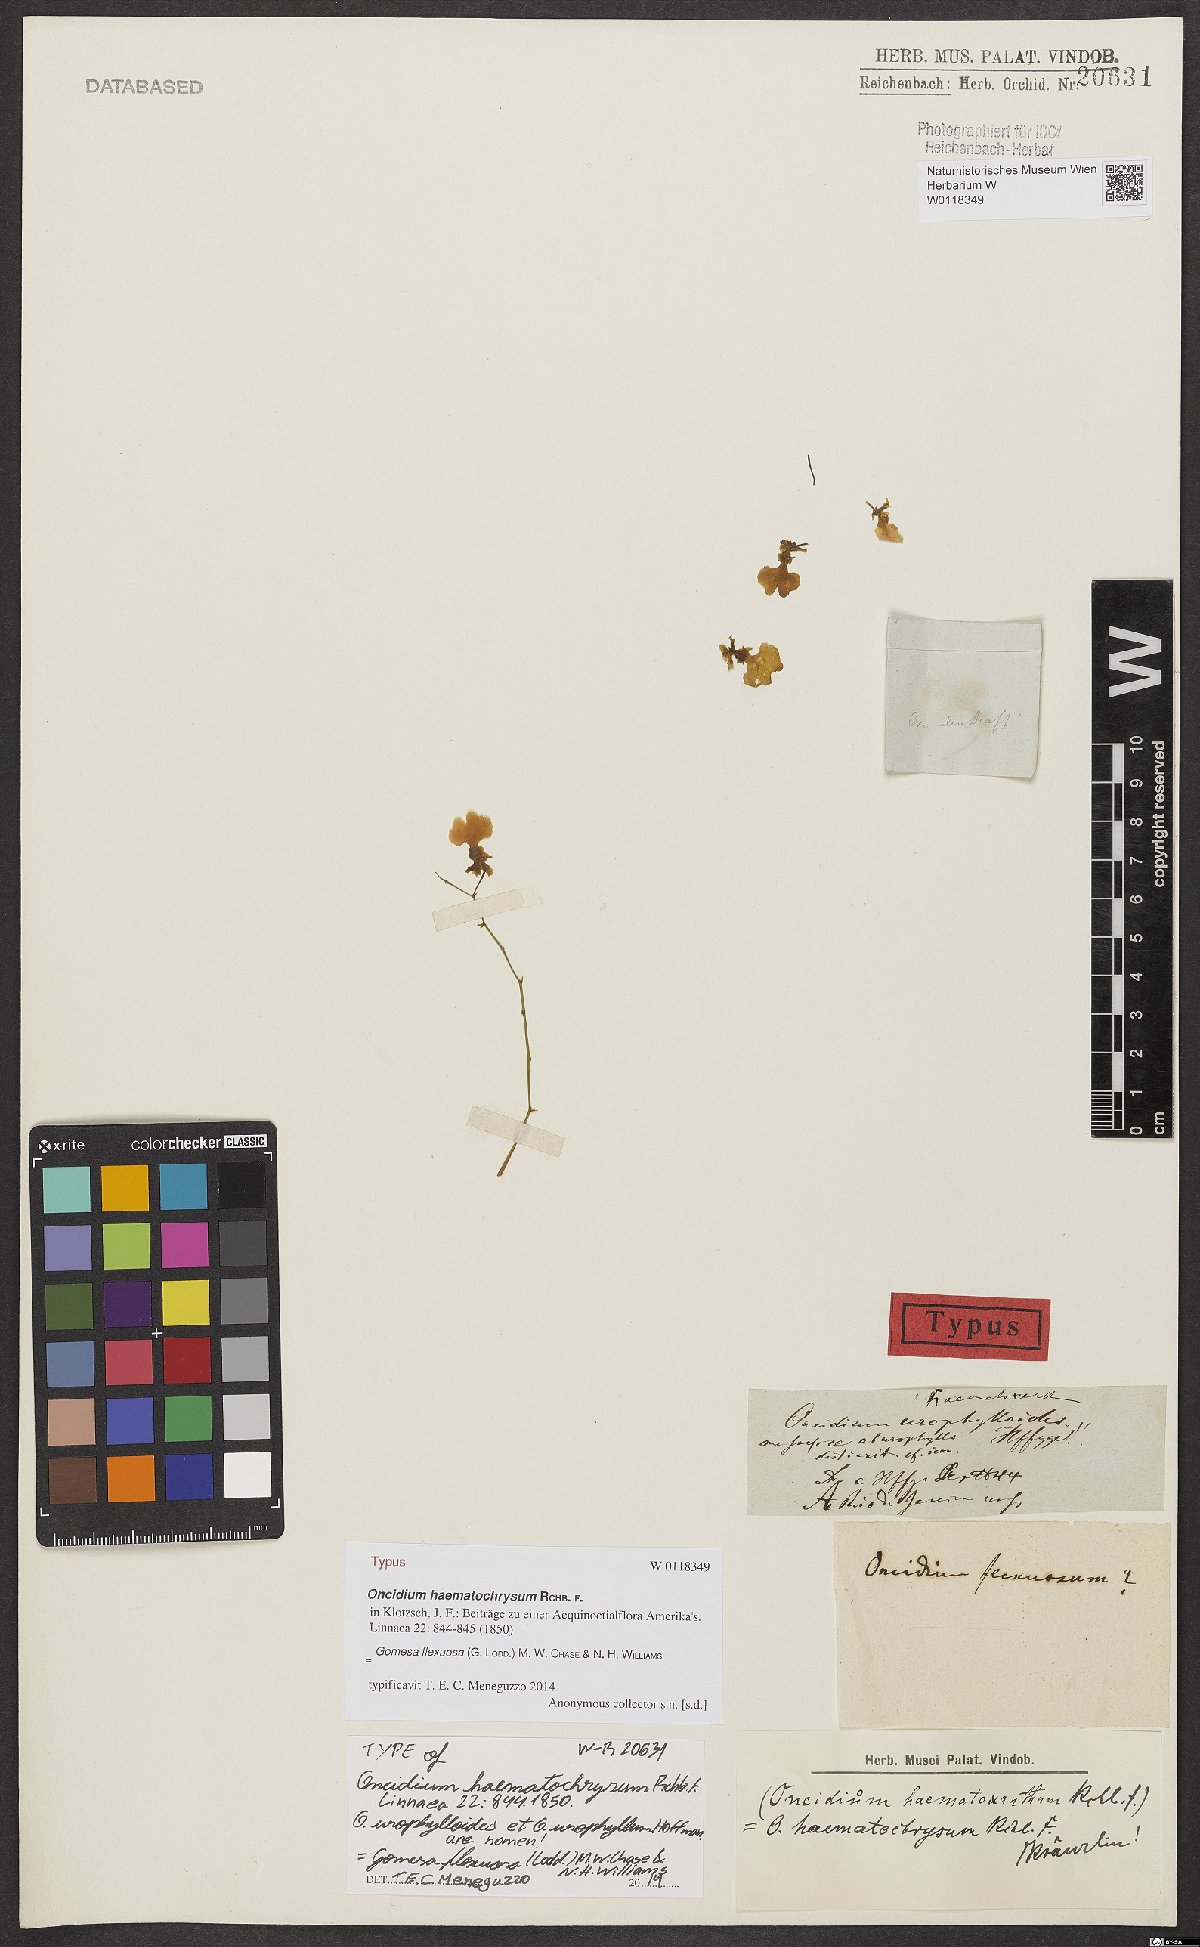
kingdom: Plantae
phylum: Tracheophyta
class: Liliopsida
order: Asparagales
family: Orchidaceae
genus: Gomesa
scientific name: Gomesa flexuosa
